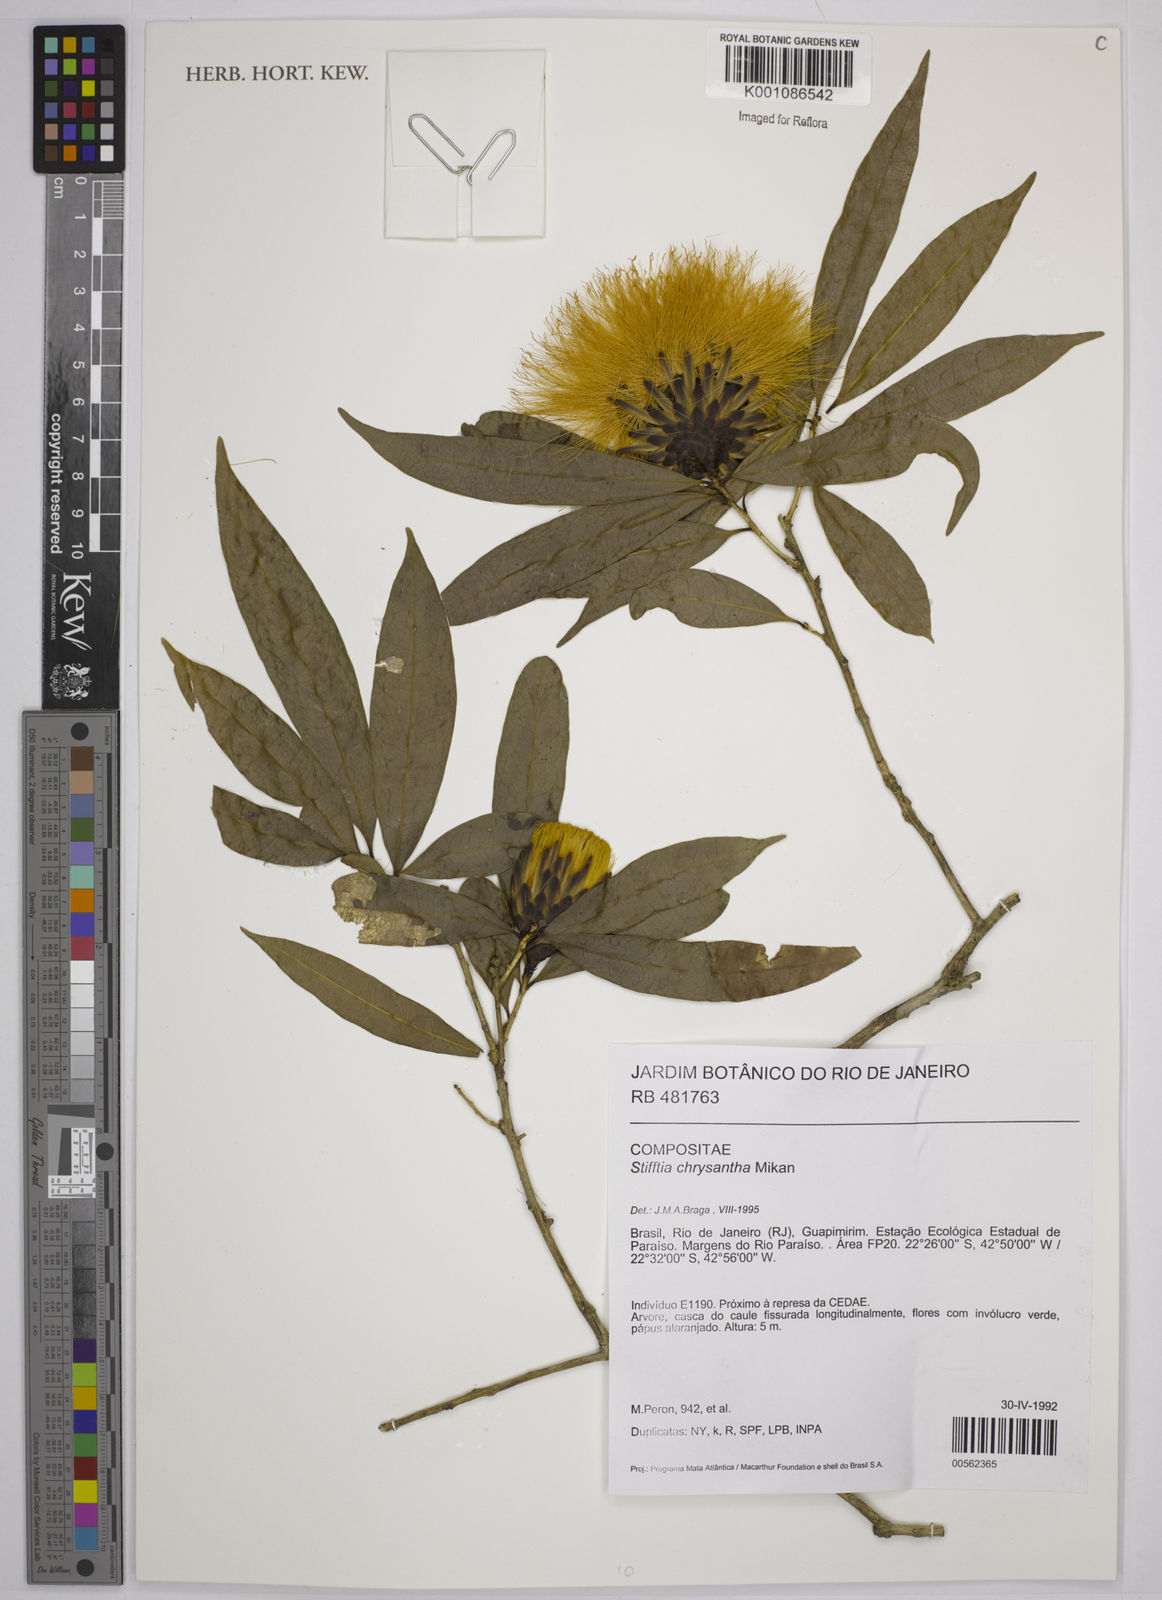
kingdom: Plantae
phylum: Tracheophyta
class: Magnoliopsida
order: Asterales
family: Asteraceae
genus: Stifftia
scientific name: Stifftia chrysantha
